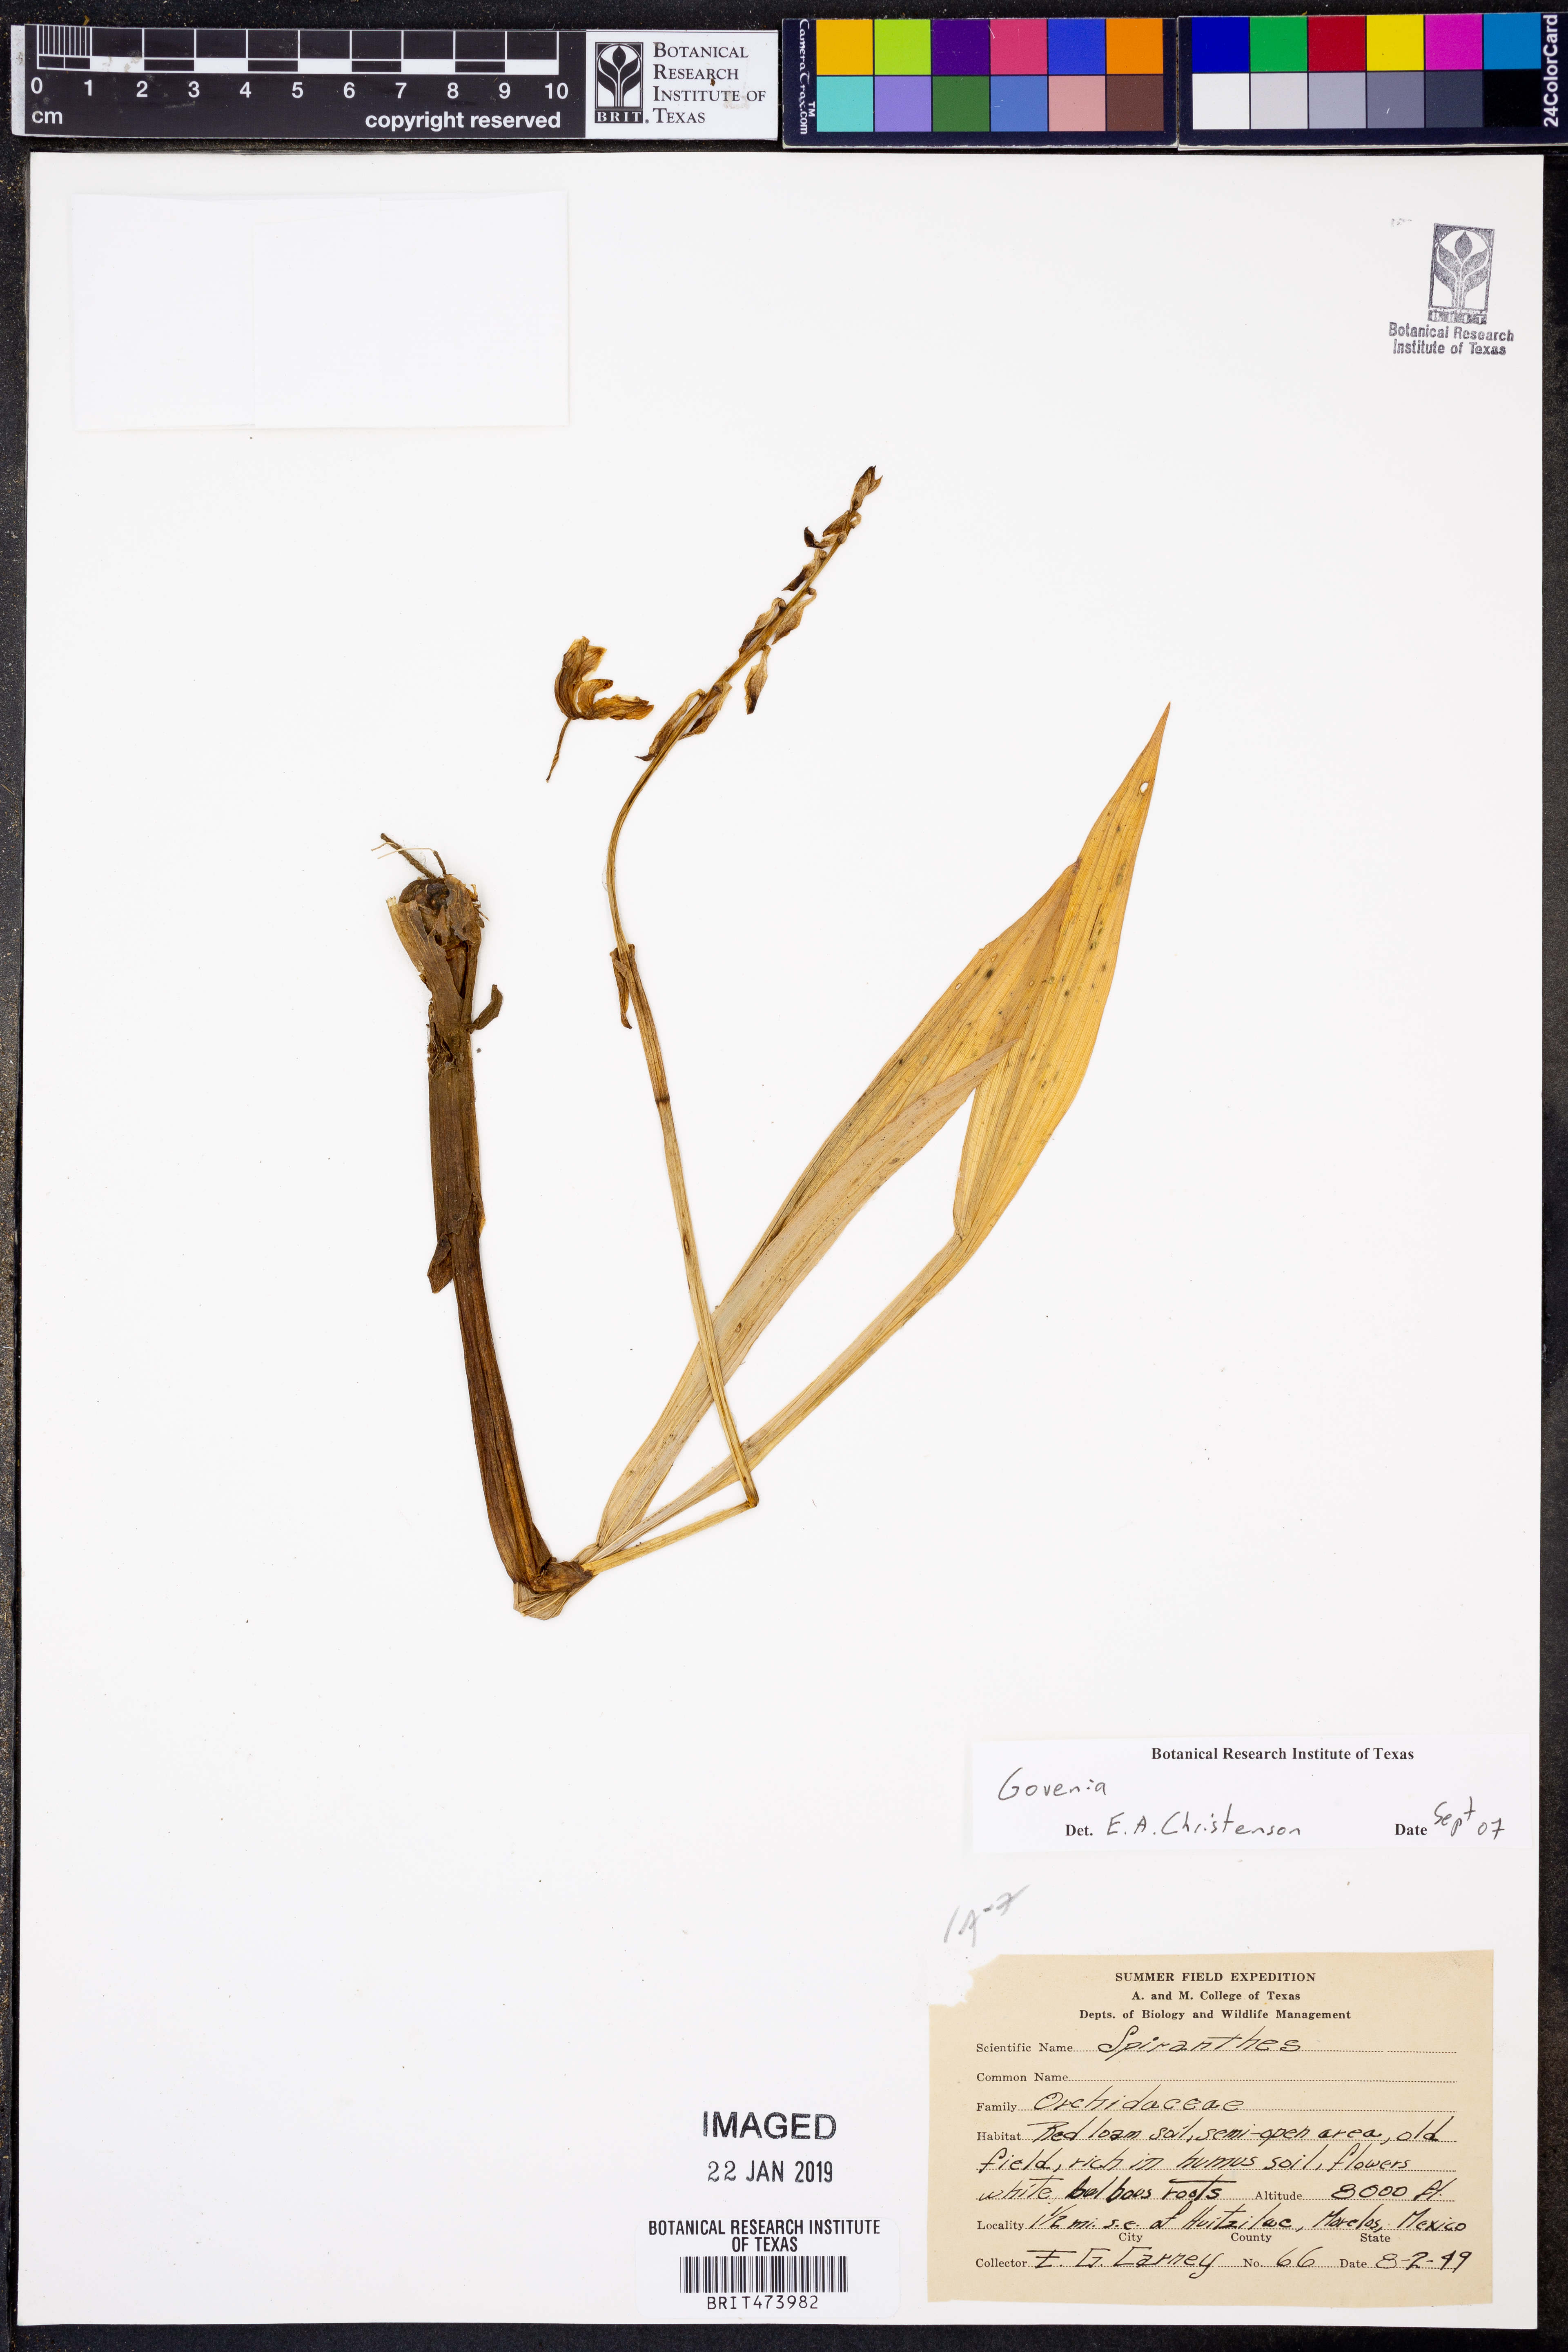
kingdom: Plantae
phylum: Tracheophyta
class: Liliopsida
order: Asparagales
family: Orchidaceae
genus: Govenia
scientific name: Govenia
